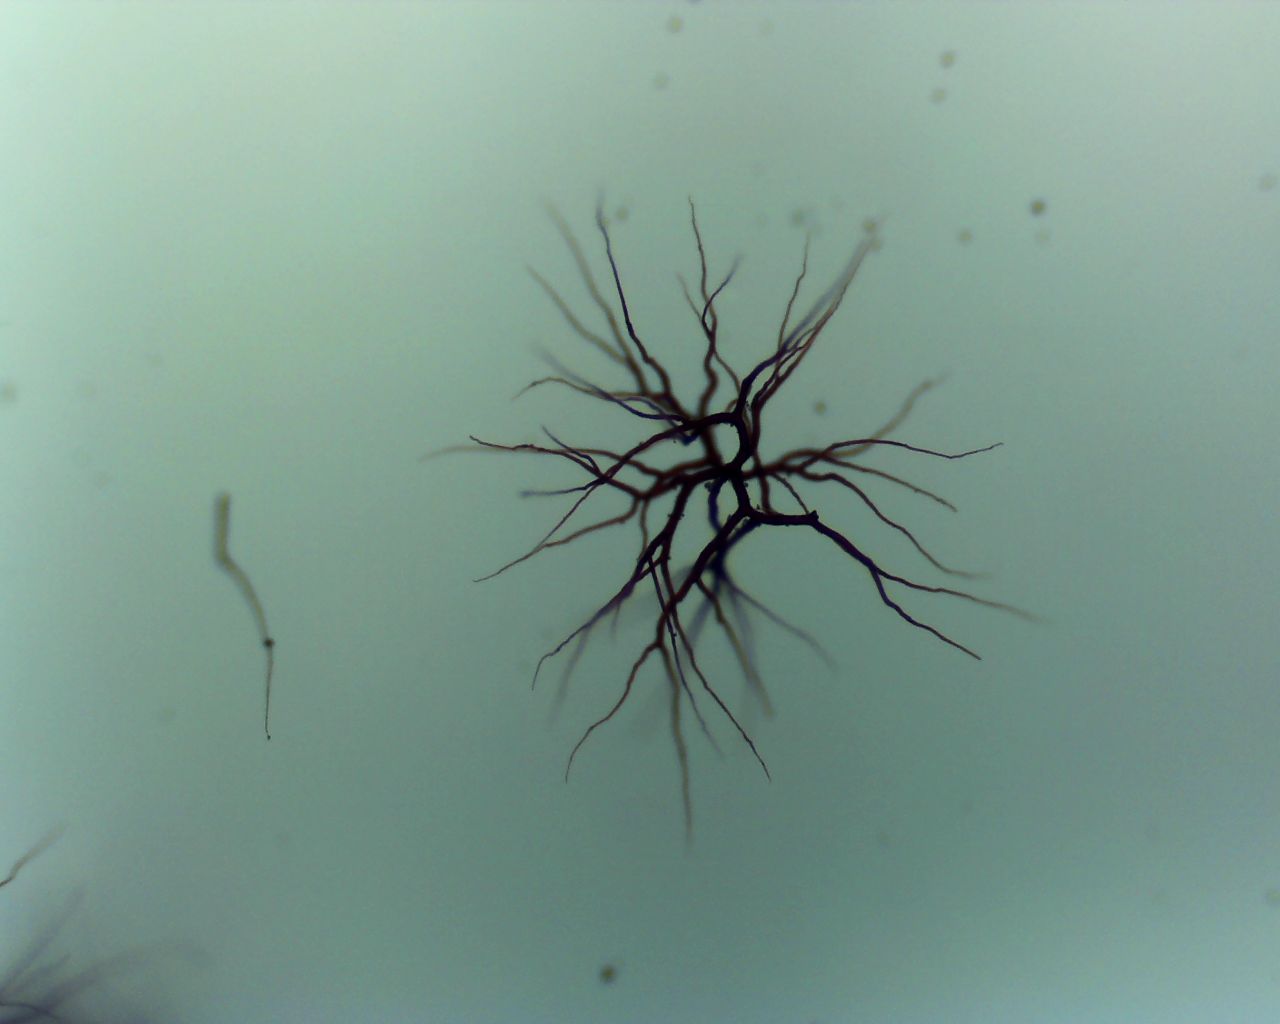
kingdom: Fungi
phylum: Basidiomycota
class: Agaricomycetes
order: Agaricales
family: Lycoperdaceae
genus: Bovista
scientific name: Bovista nigrescens
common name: sortagtig bovist
